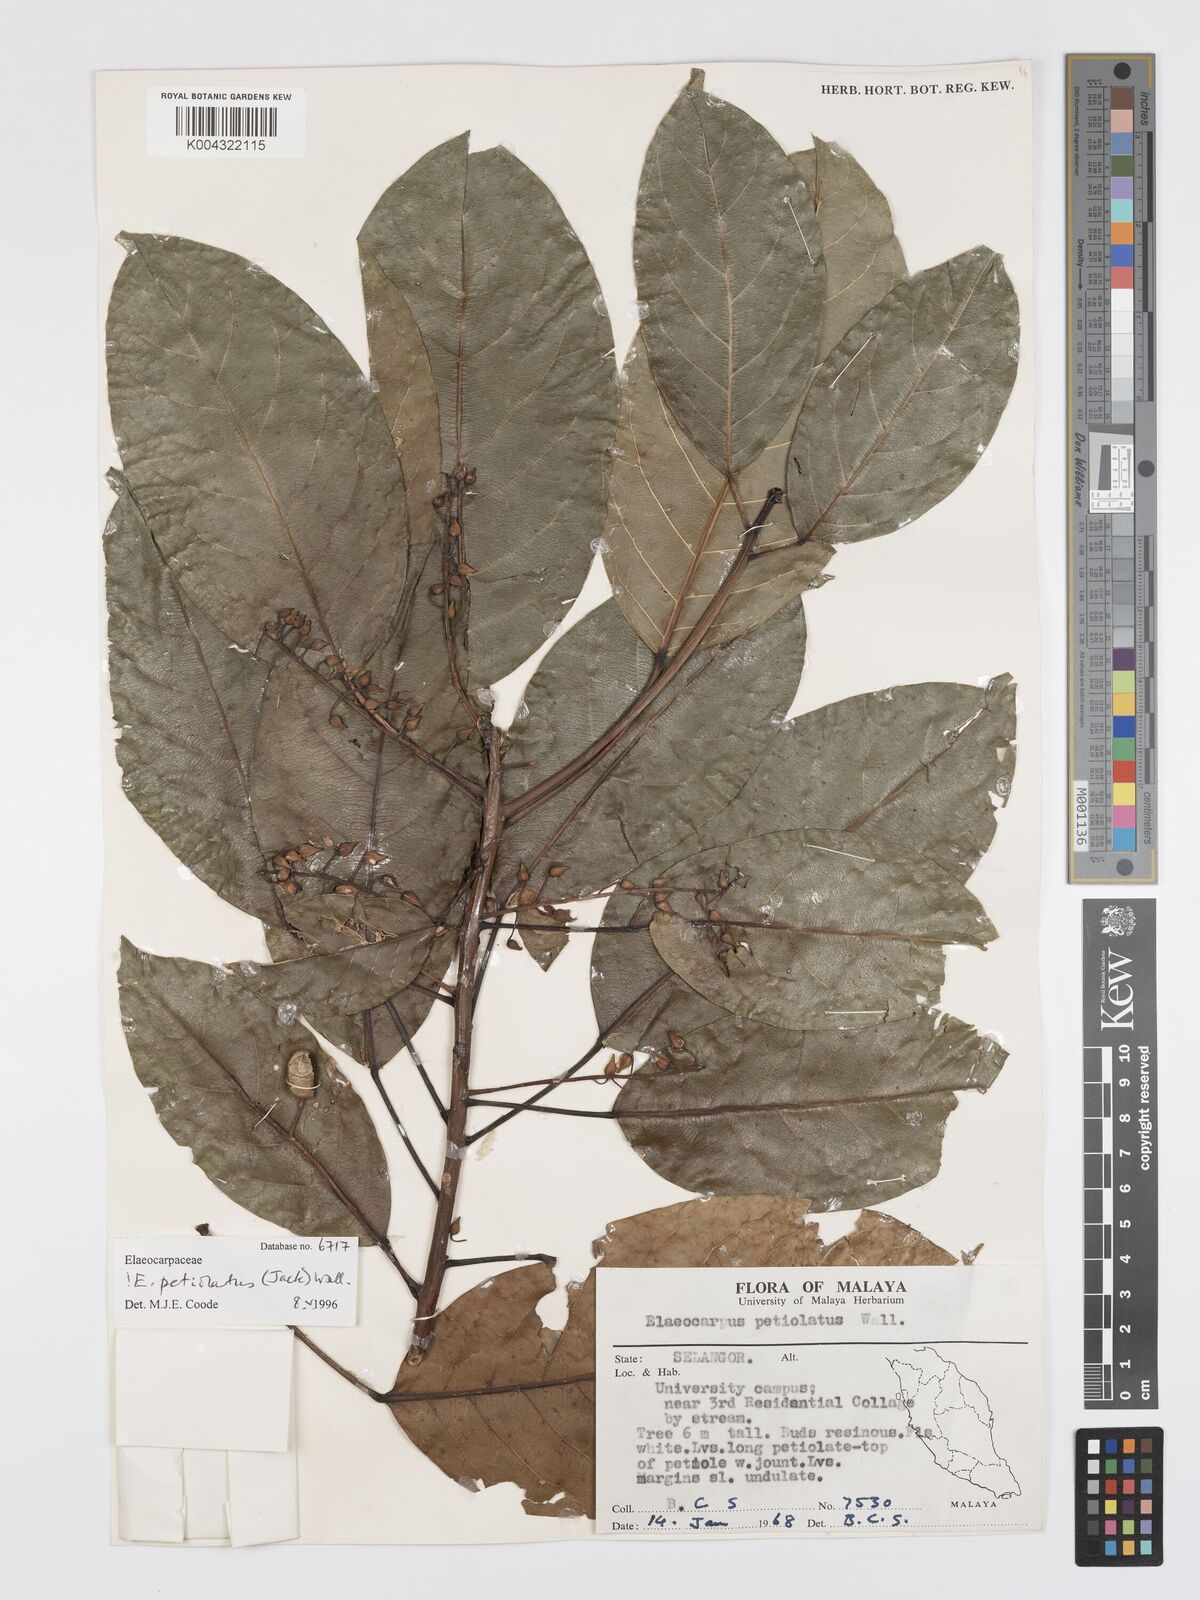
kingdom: Plantae
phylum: Tracheophyta
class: Magnoliopsida
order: Oxalidales
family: Elaeocarpaceae
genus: Elaeocarpus
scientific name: Elaeocarpus petiolatus
